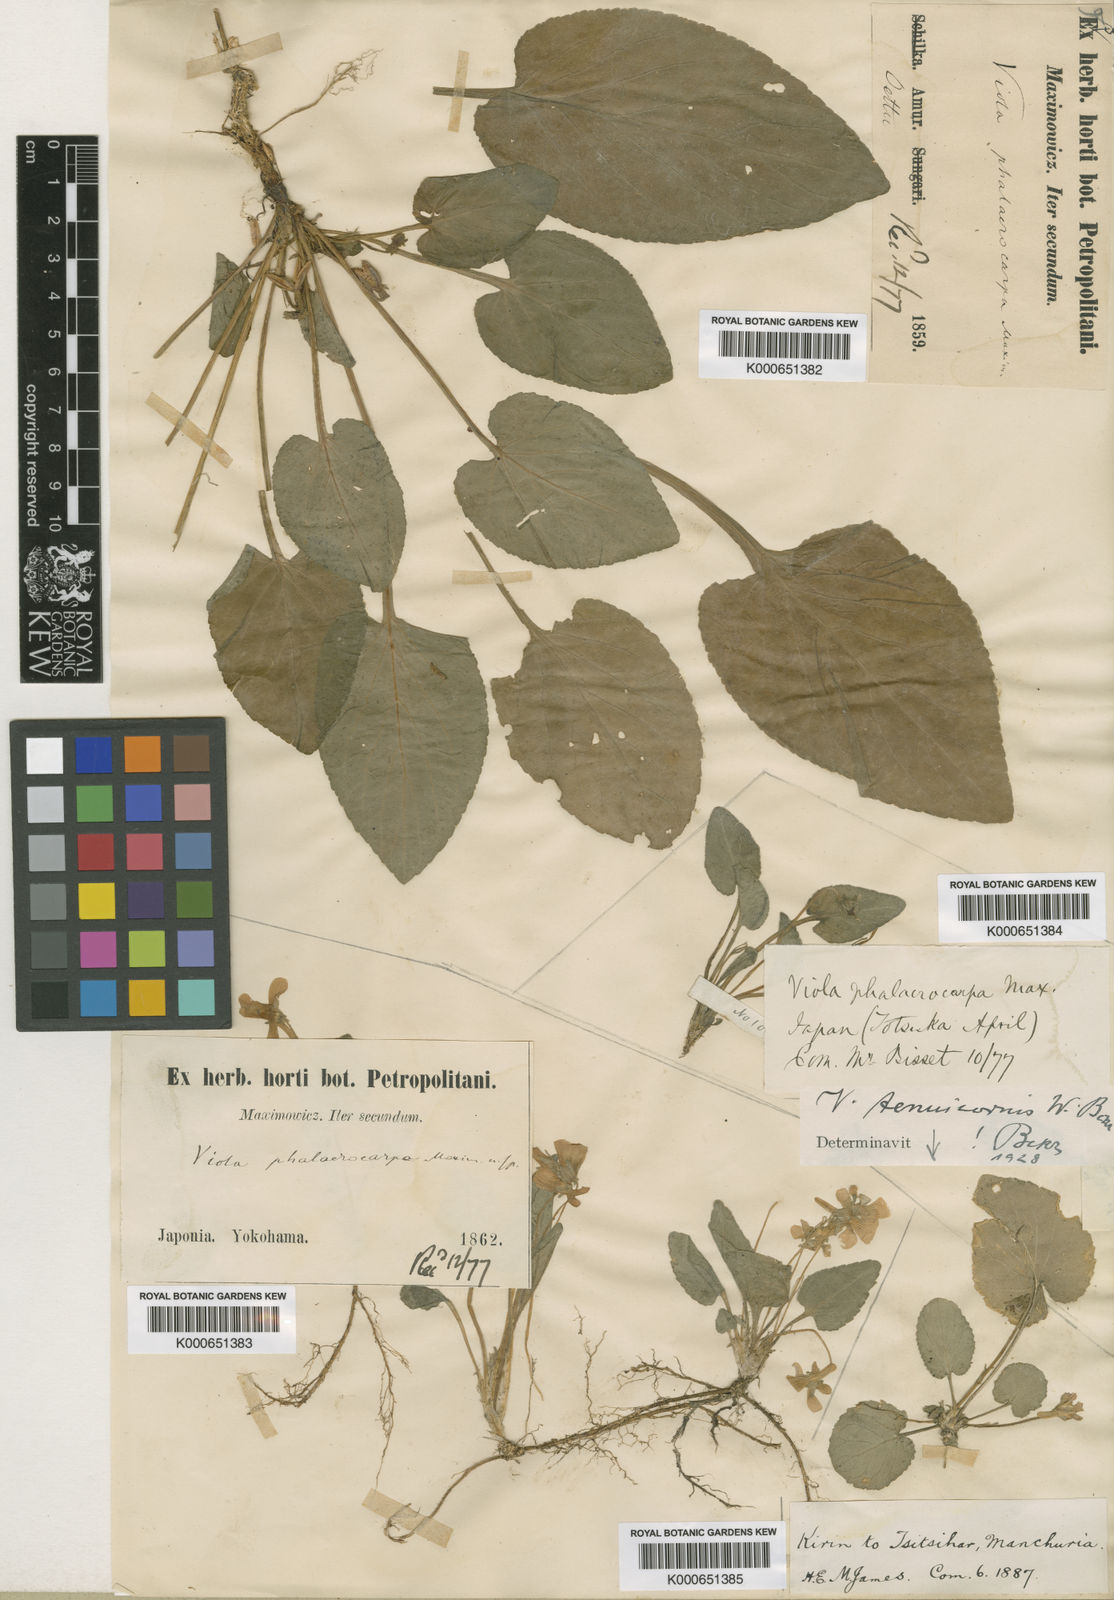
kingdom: Plantae
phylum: Tracheophyta
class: Magnoliopsida
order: Malpighiales
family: Violaceae
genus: Viola
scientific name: Viola phalacrocarpa
